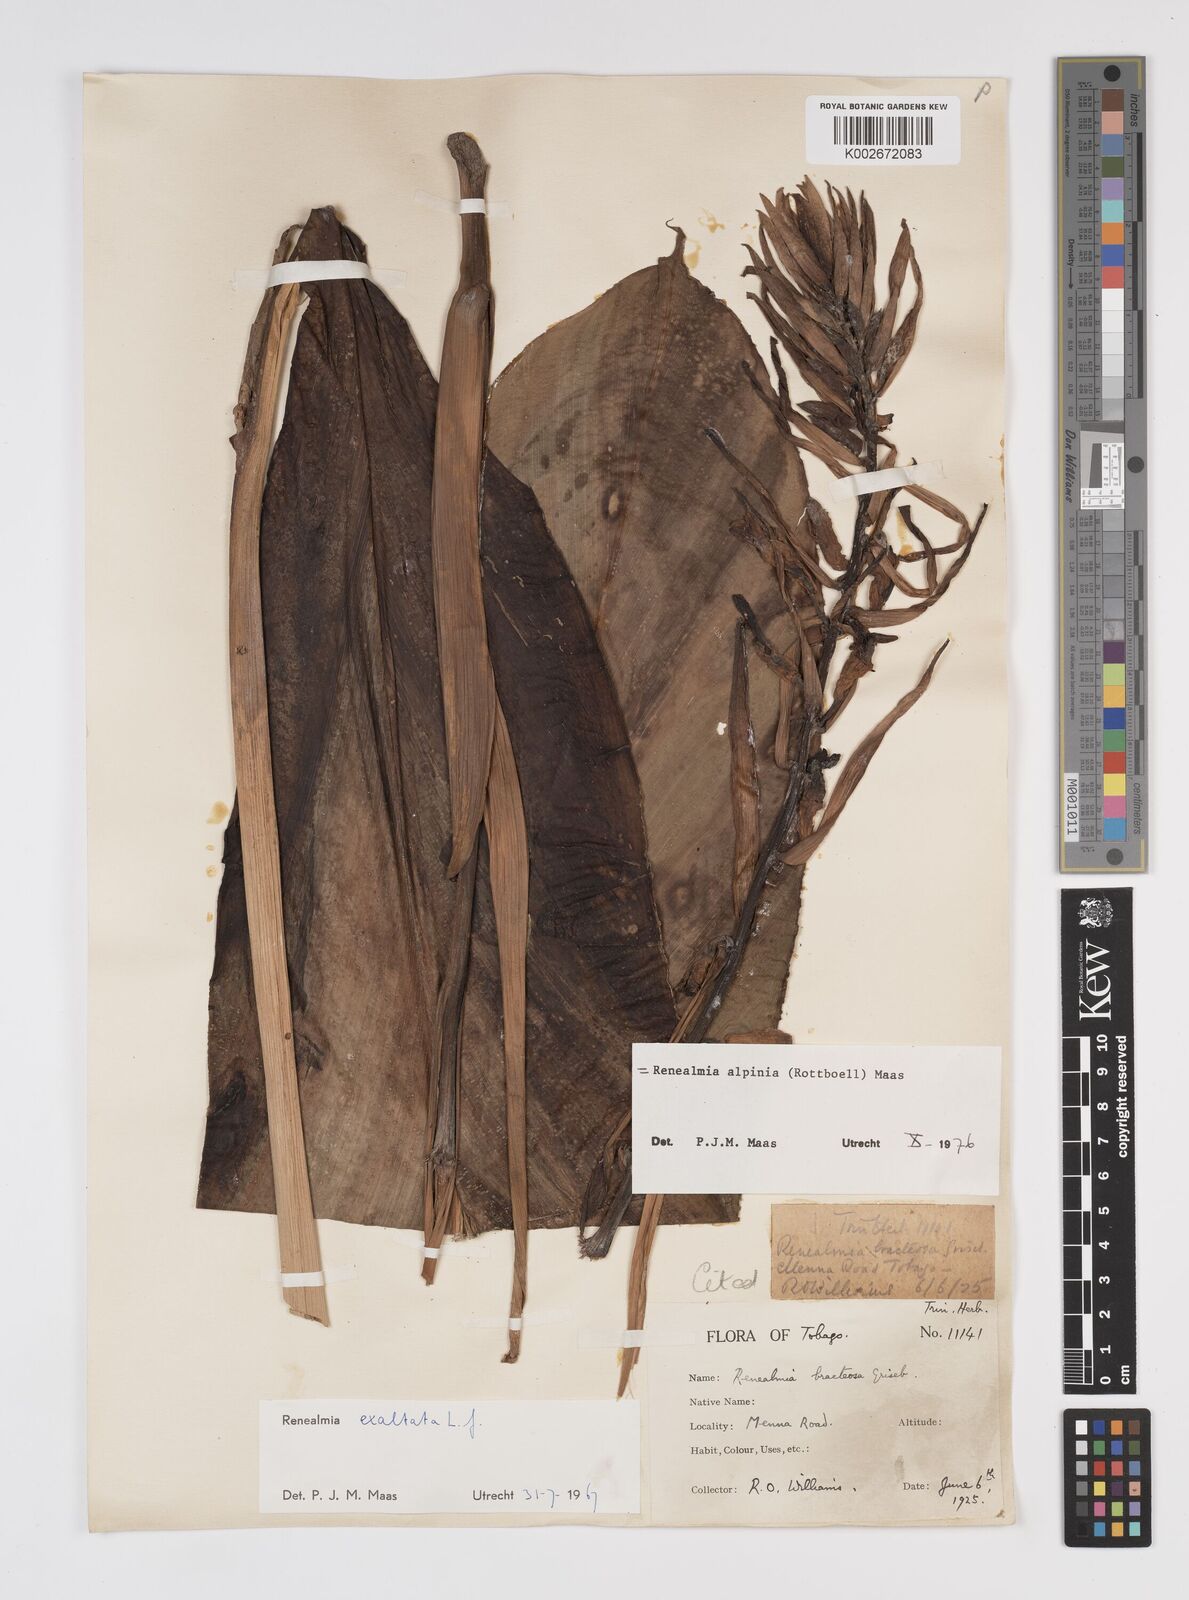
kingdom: Plantae
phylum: Tracheophyta
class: Liliopsida
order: Zingiberales
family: Zingiberaceae
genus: Renealmia
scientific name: Renealmia alpinia
